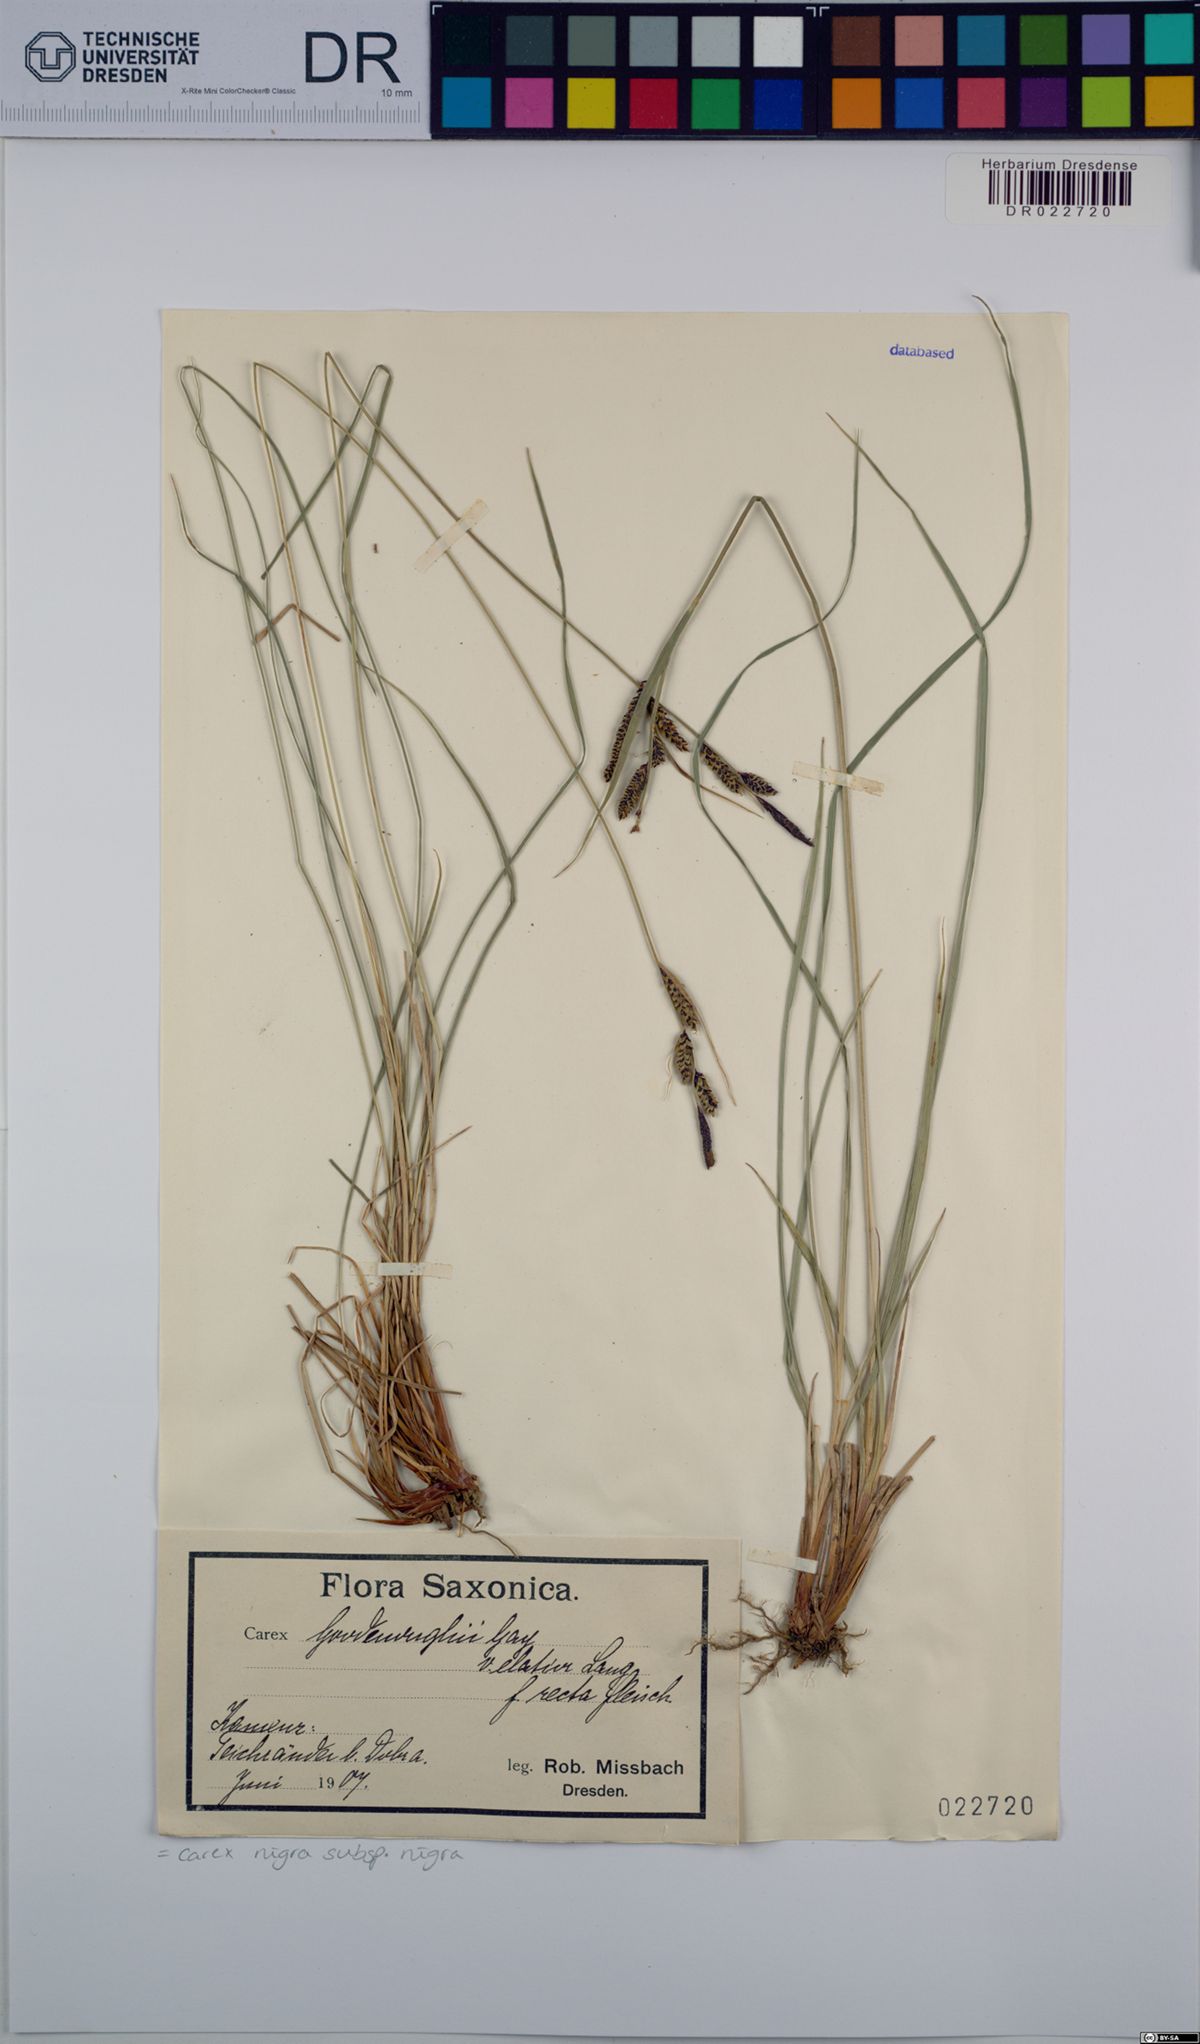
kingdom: Plantae
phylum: Tracheophyta
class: Liliopsida
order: Poales
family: Cyperaceae
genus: Carex
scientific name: Carex nigra
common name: Common sedge
